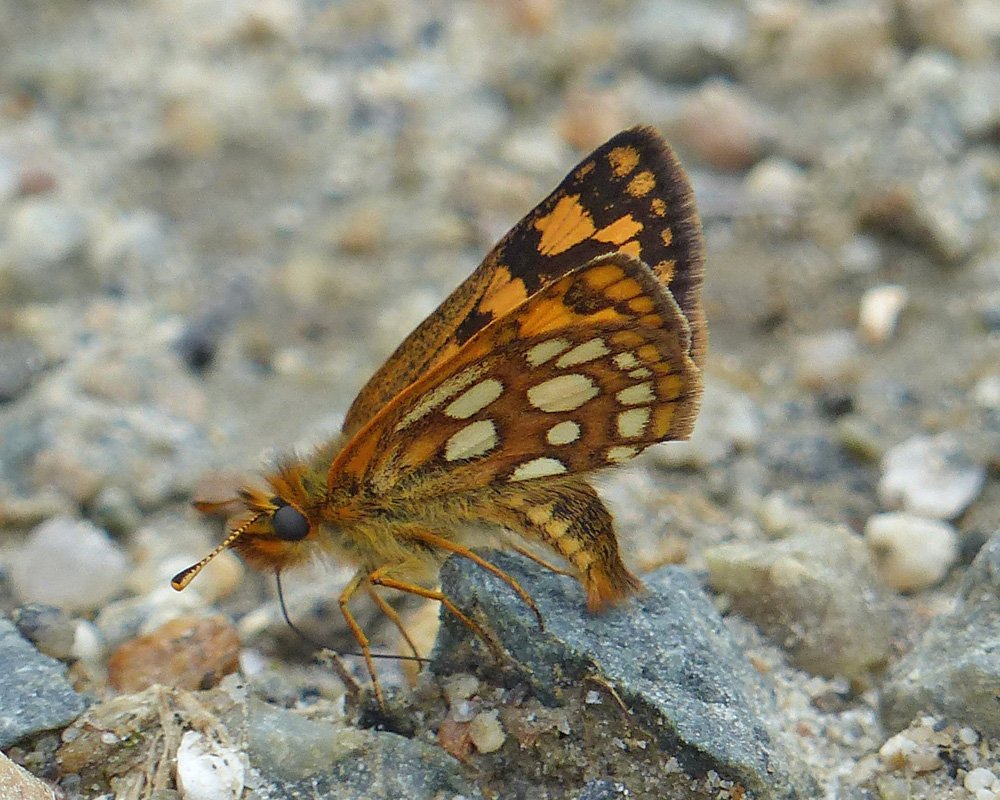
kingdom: Animalia
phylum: Arthropoda
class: Insecta
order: Lepidoptera
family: Hesperiidae
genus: Carterocephalus
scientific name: Carterocephalus palaemon
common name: Chequered Skipper
